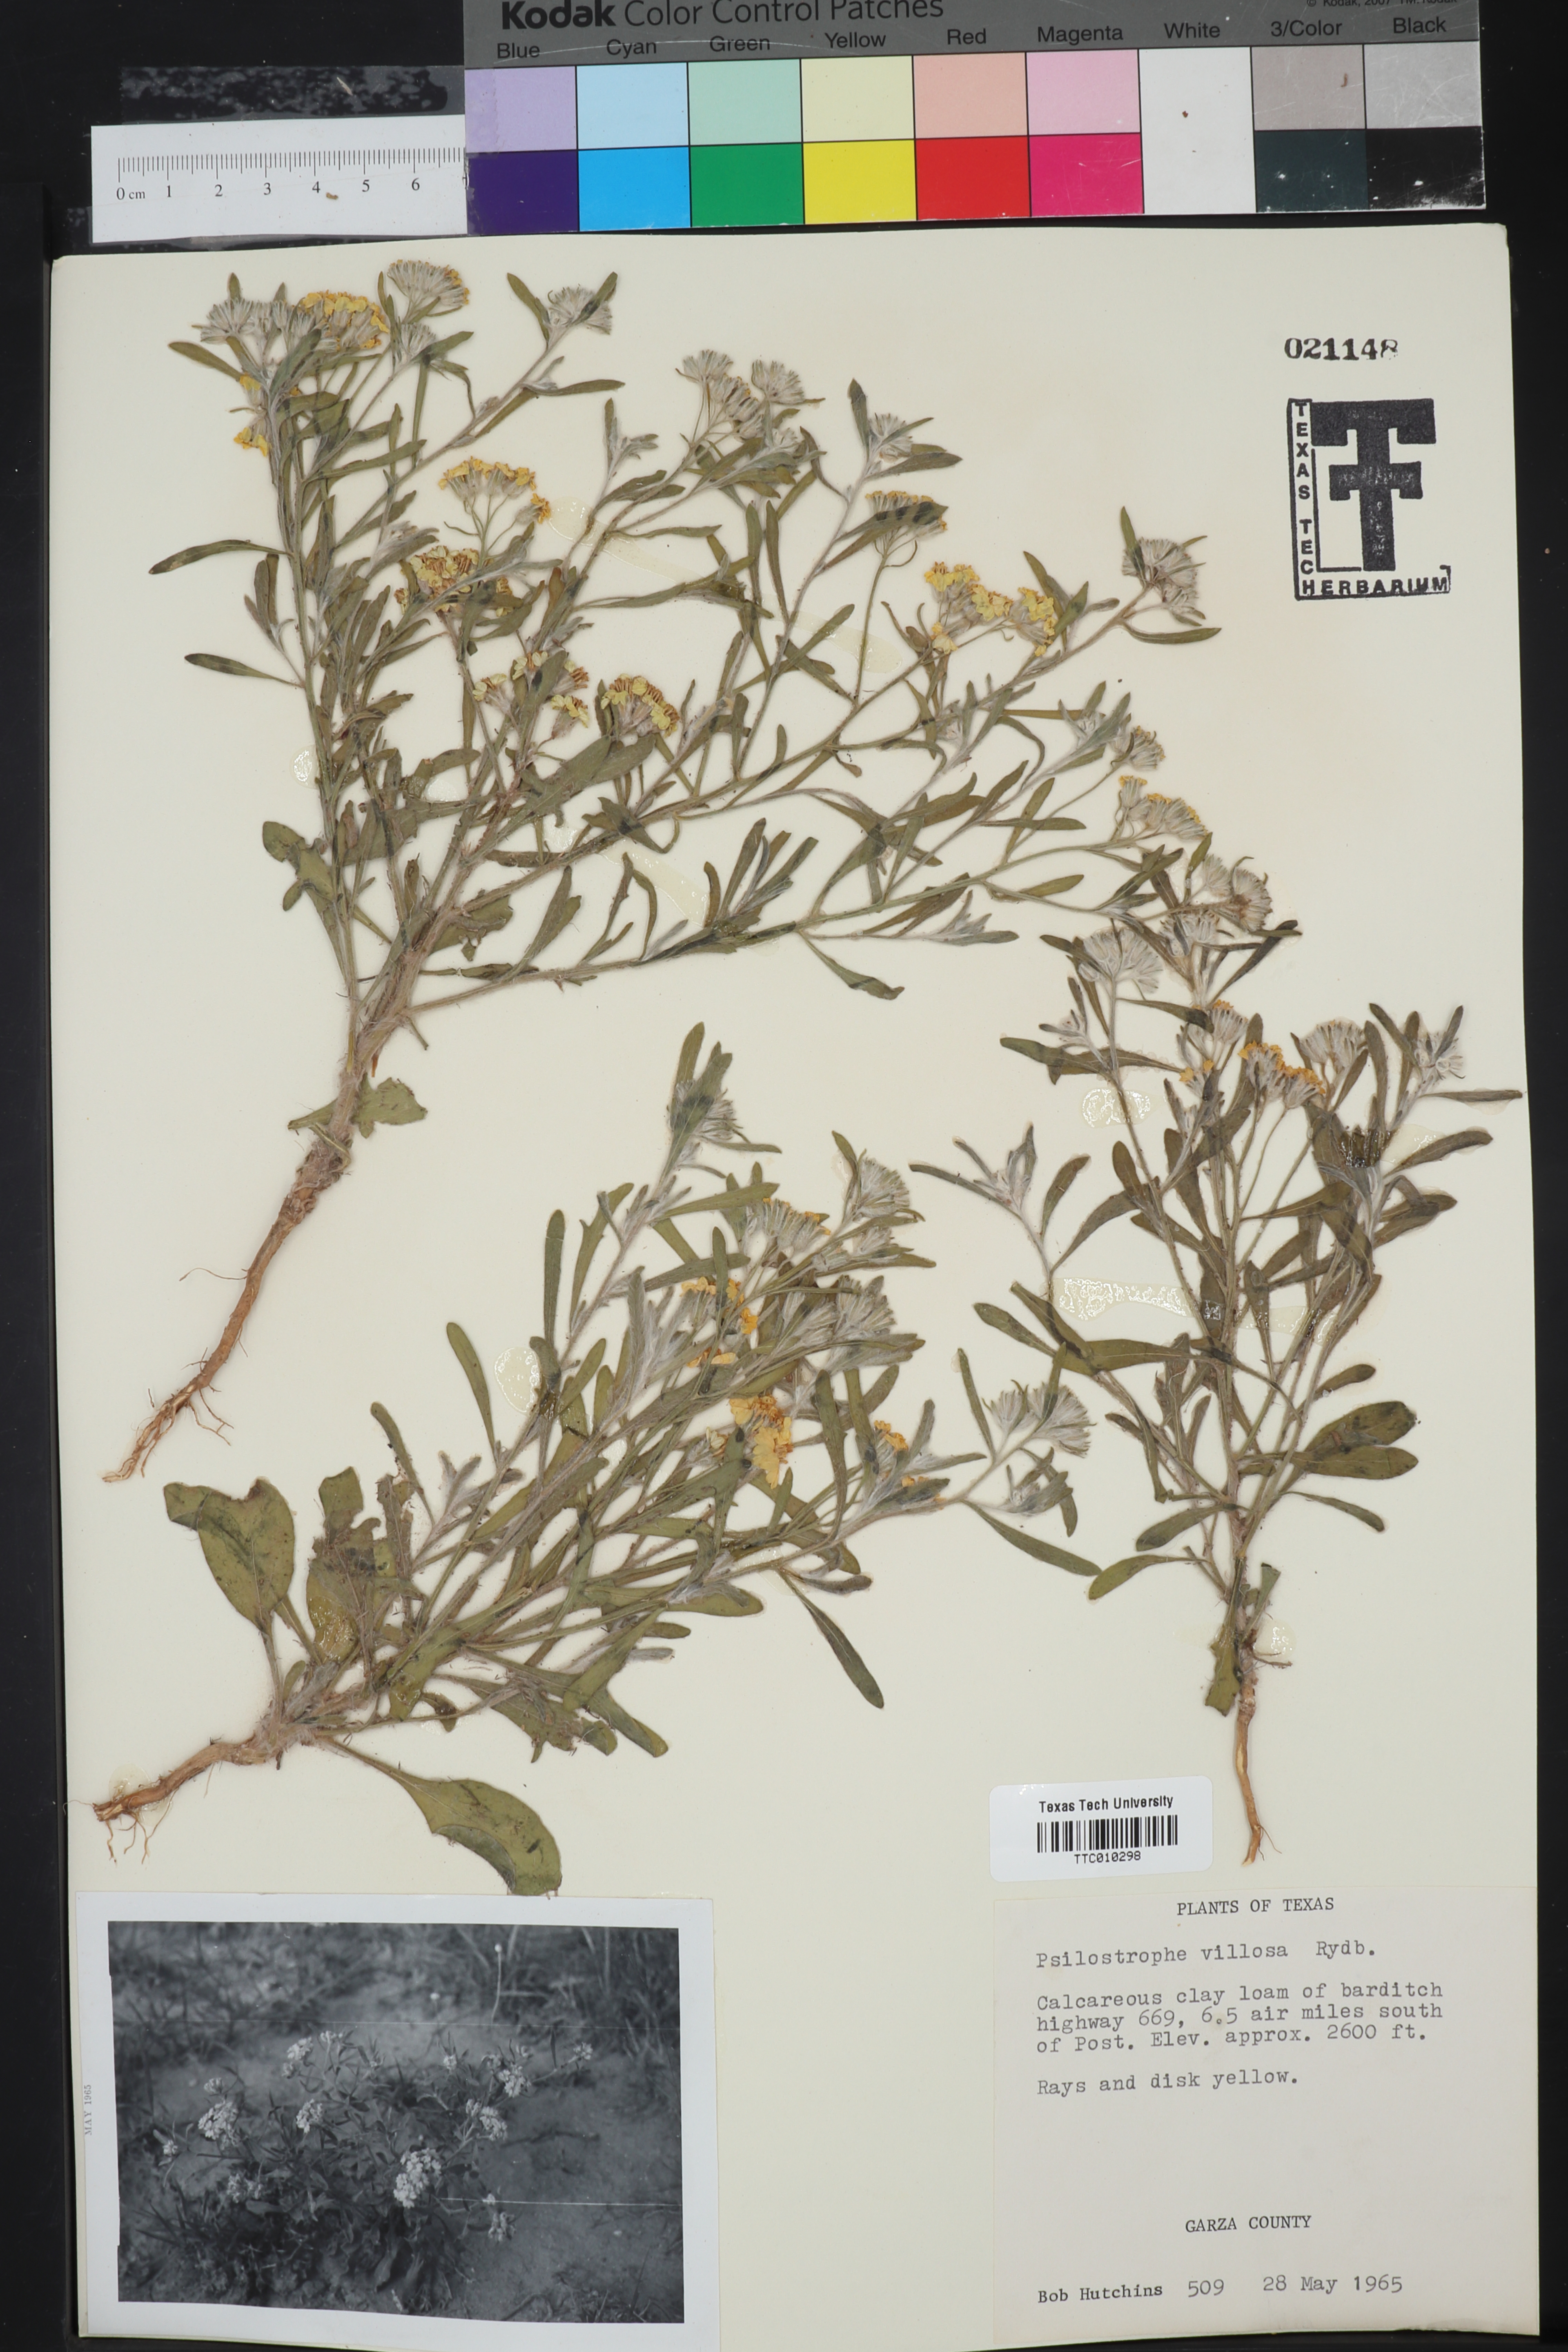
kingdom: Plantae
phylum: Tracheophyta
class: Magnoliopsida
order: Asterales
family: Asteraceae
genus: Psilostrophe
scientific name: Psilostrophe villosa
